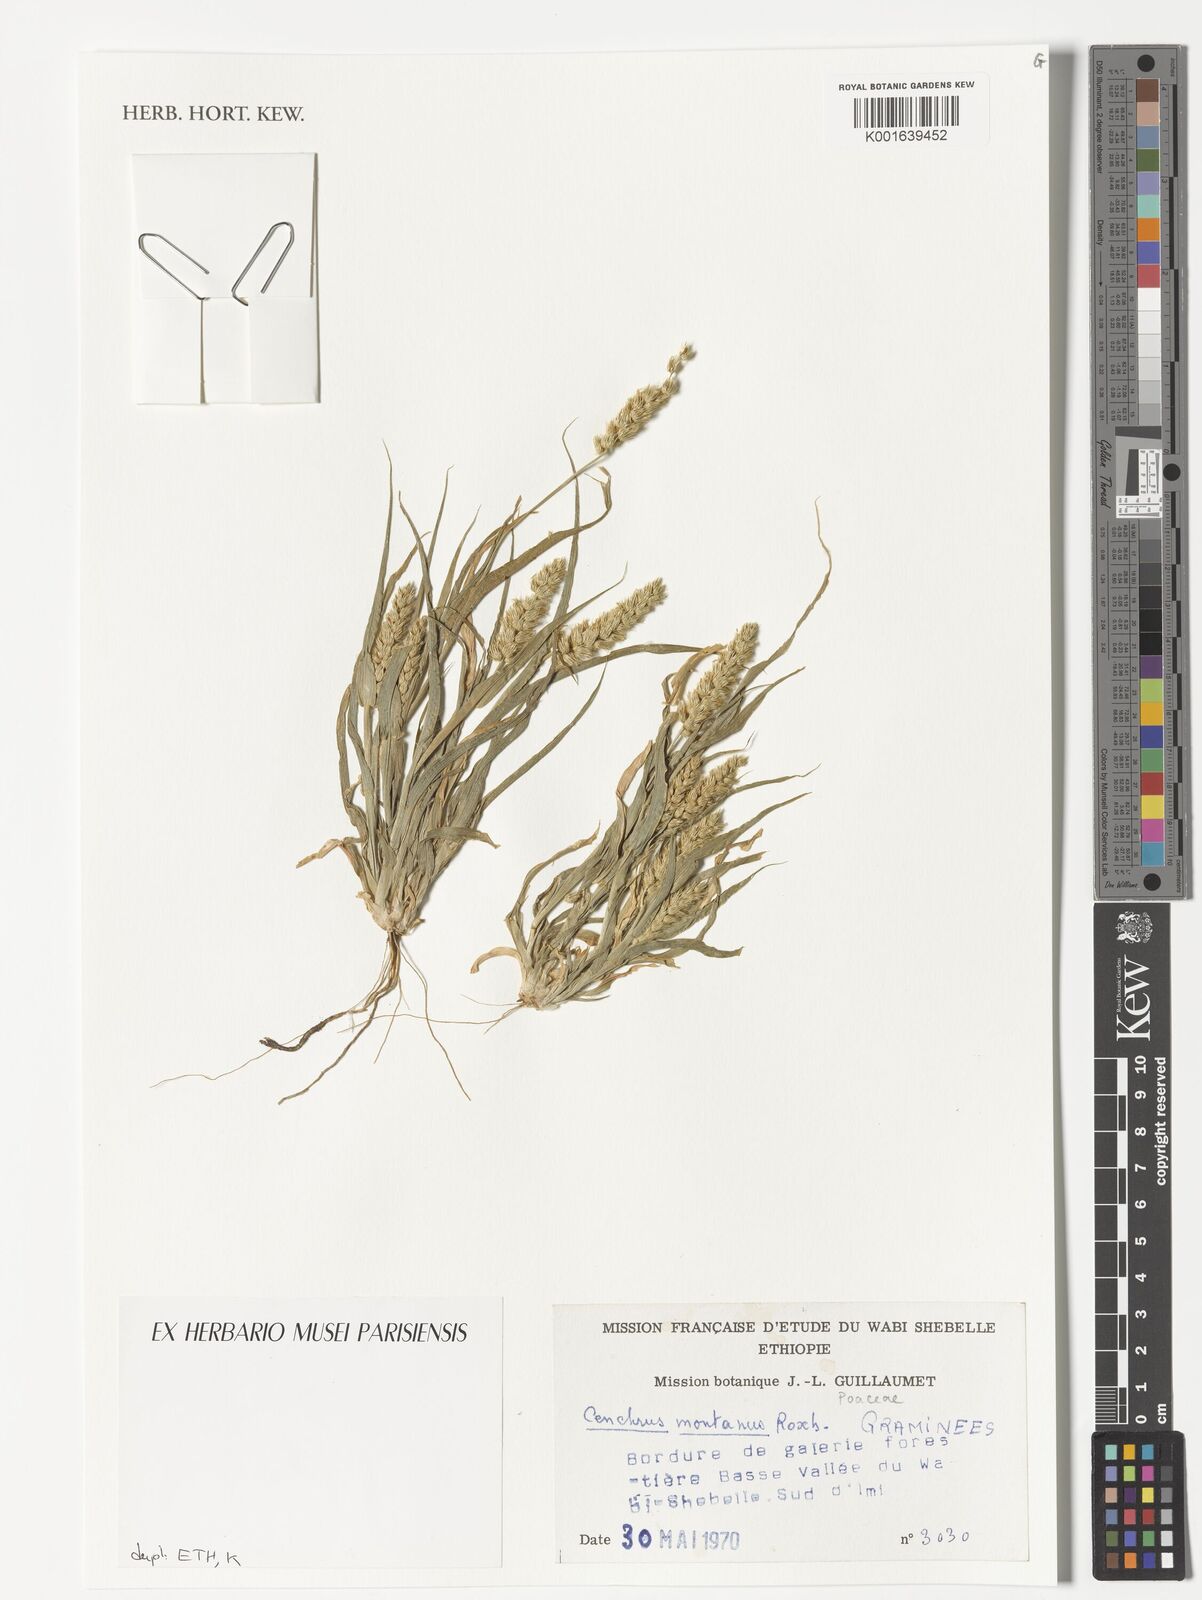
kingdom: Plantae
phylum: Tracheophyta
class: Liliopsida
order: Poales
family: Poaceae
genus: Cenchrus
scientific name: Cenchrus
